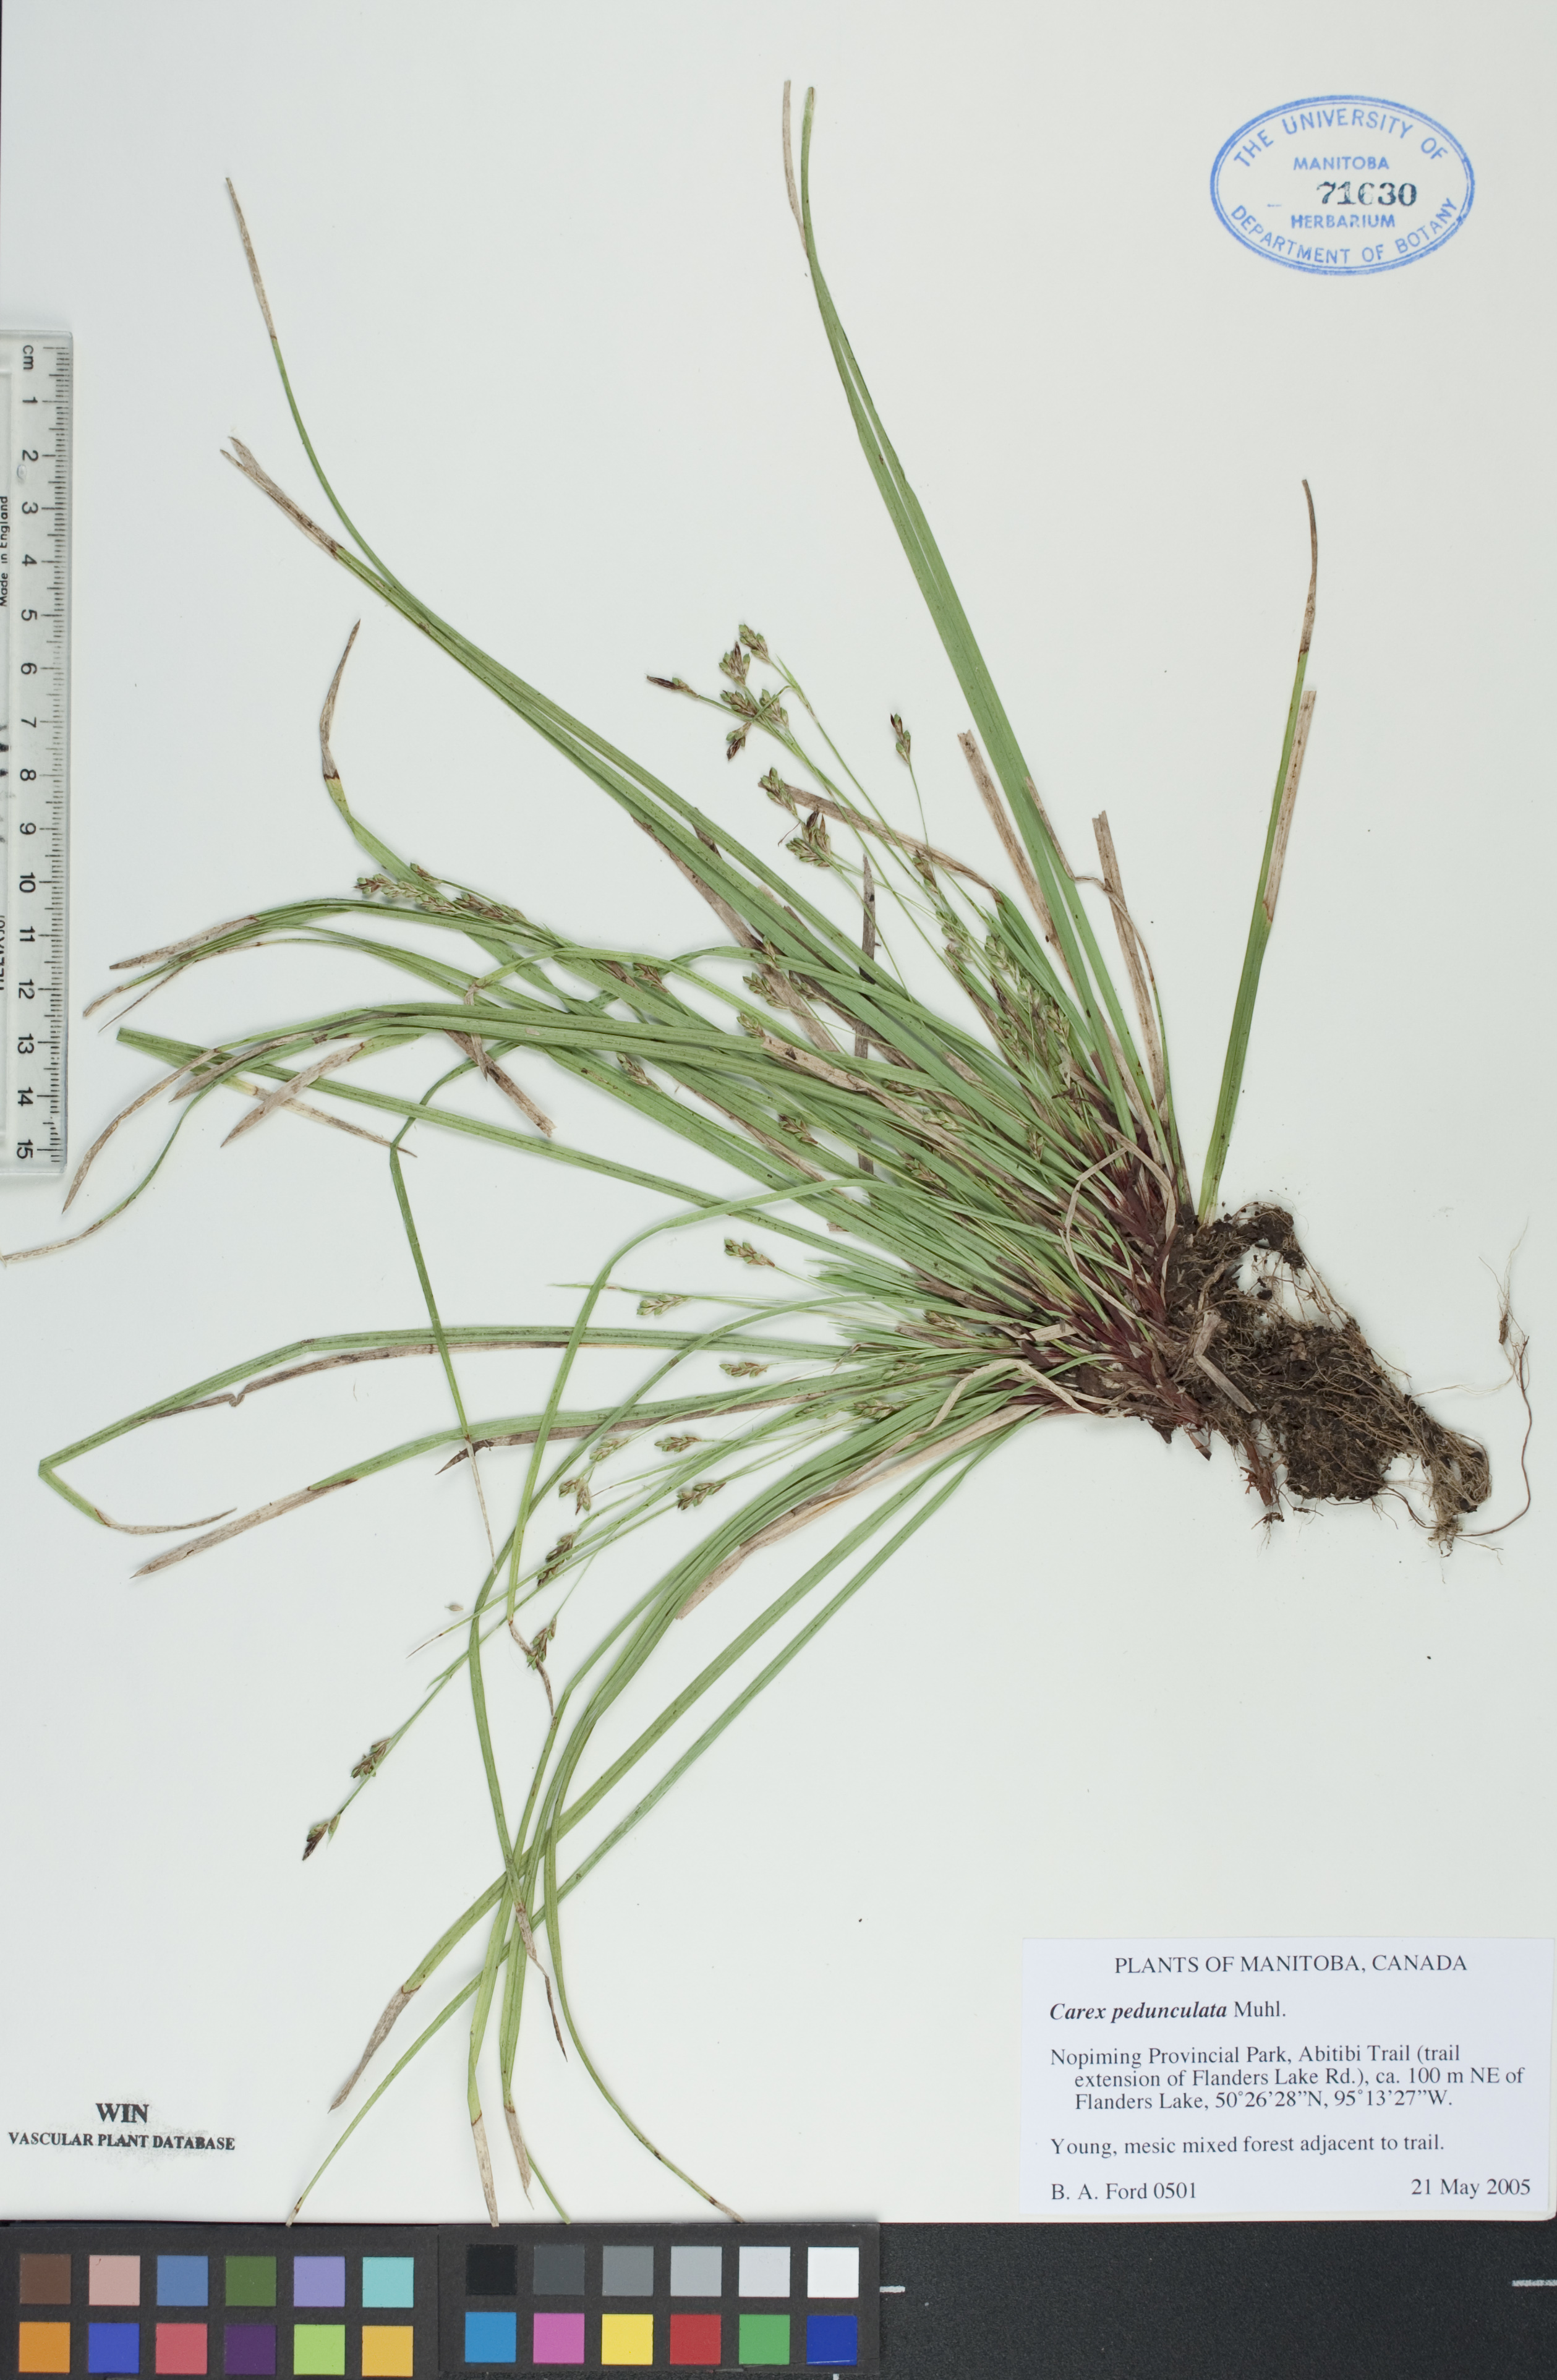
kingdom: Plantae
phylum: Tracheophyta
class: Liliopsida
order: Poales
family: Cyperaceae
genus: Carex
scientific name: Carex pedunculata
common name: Pedunculate sedge
